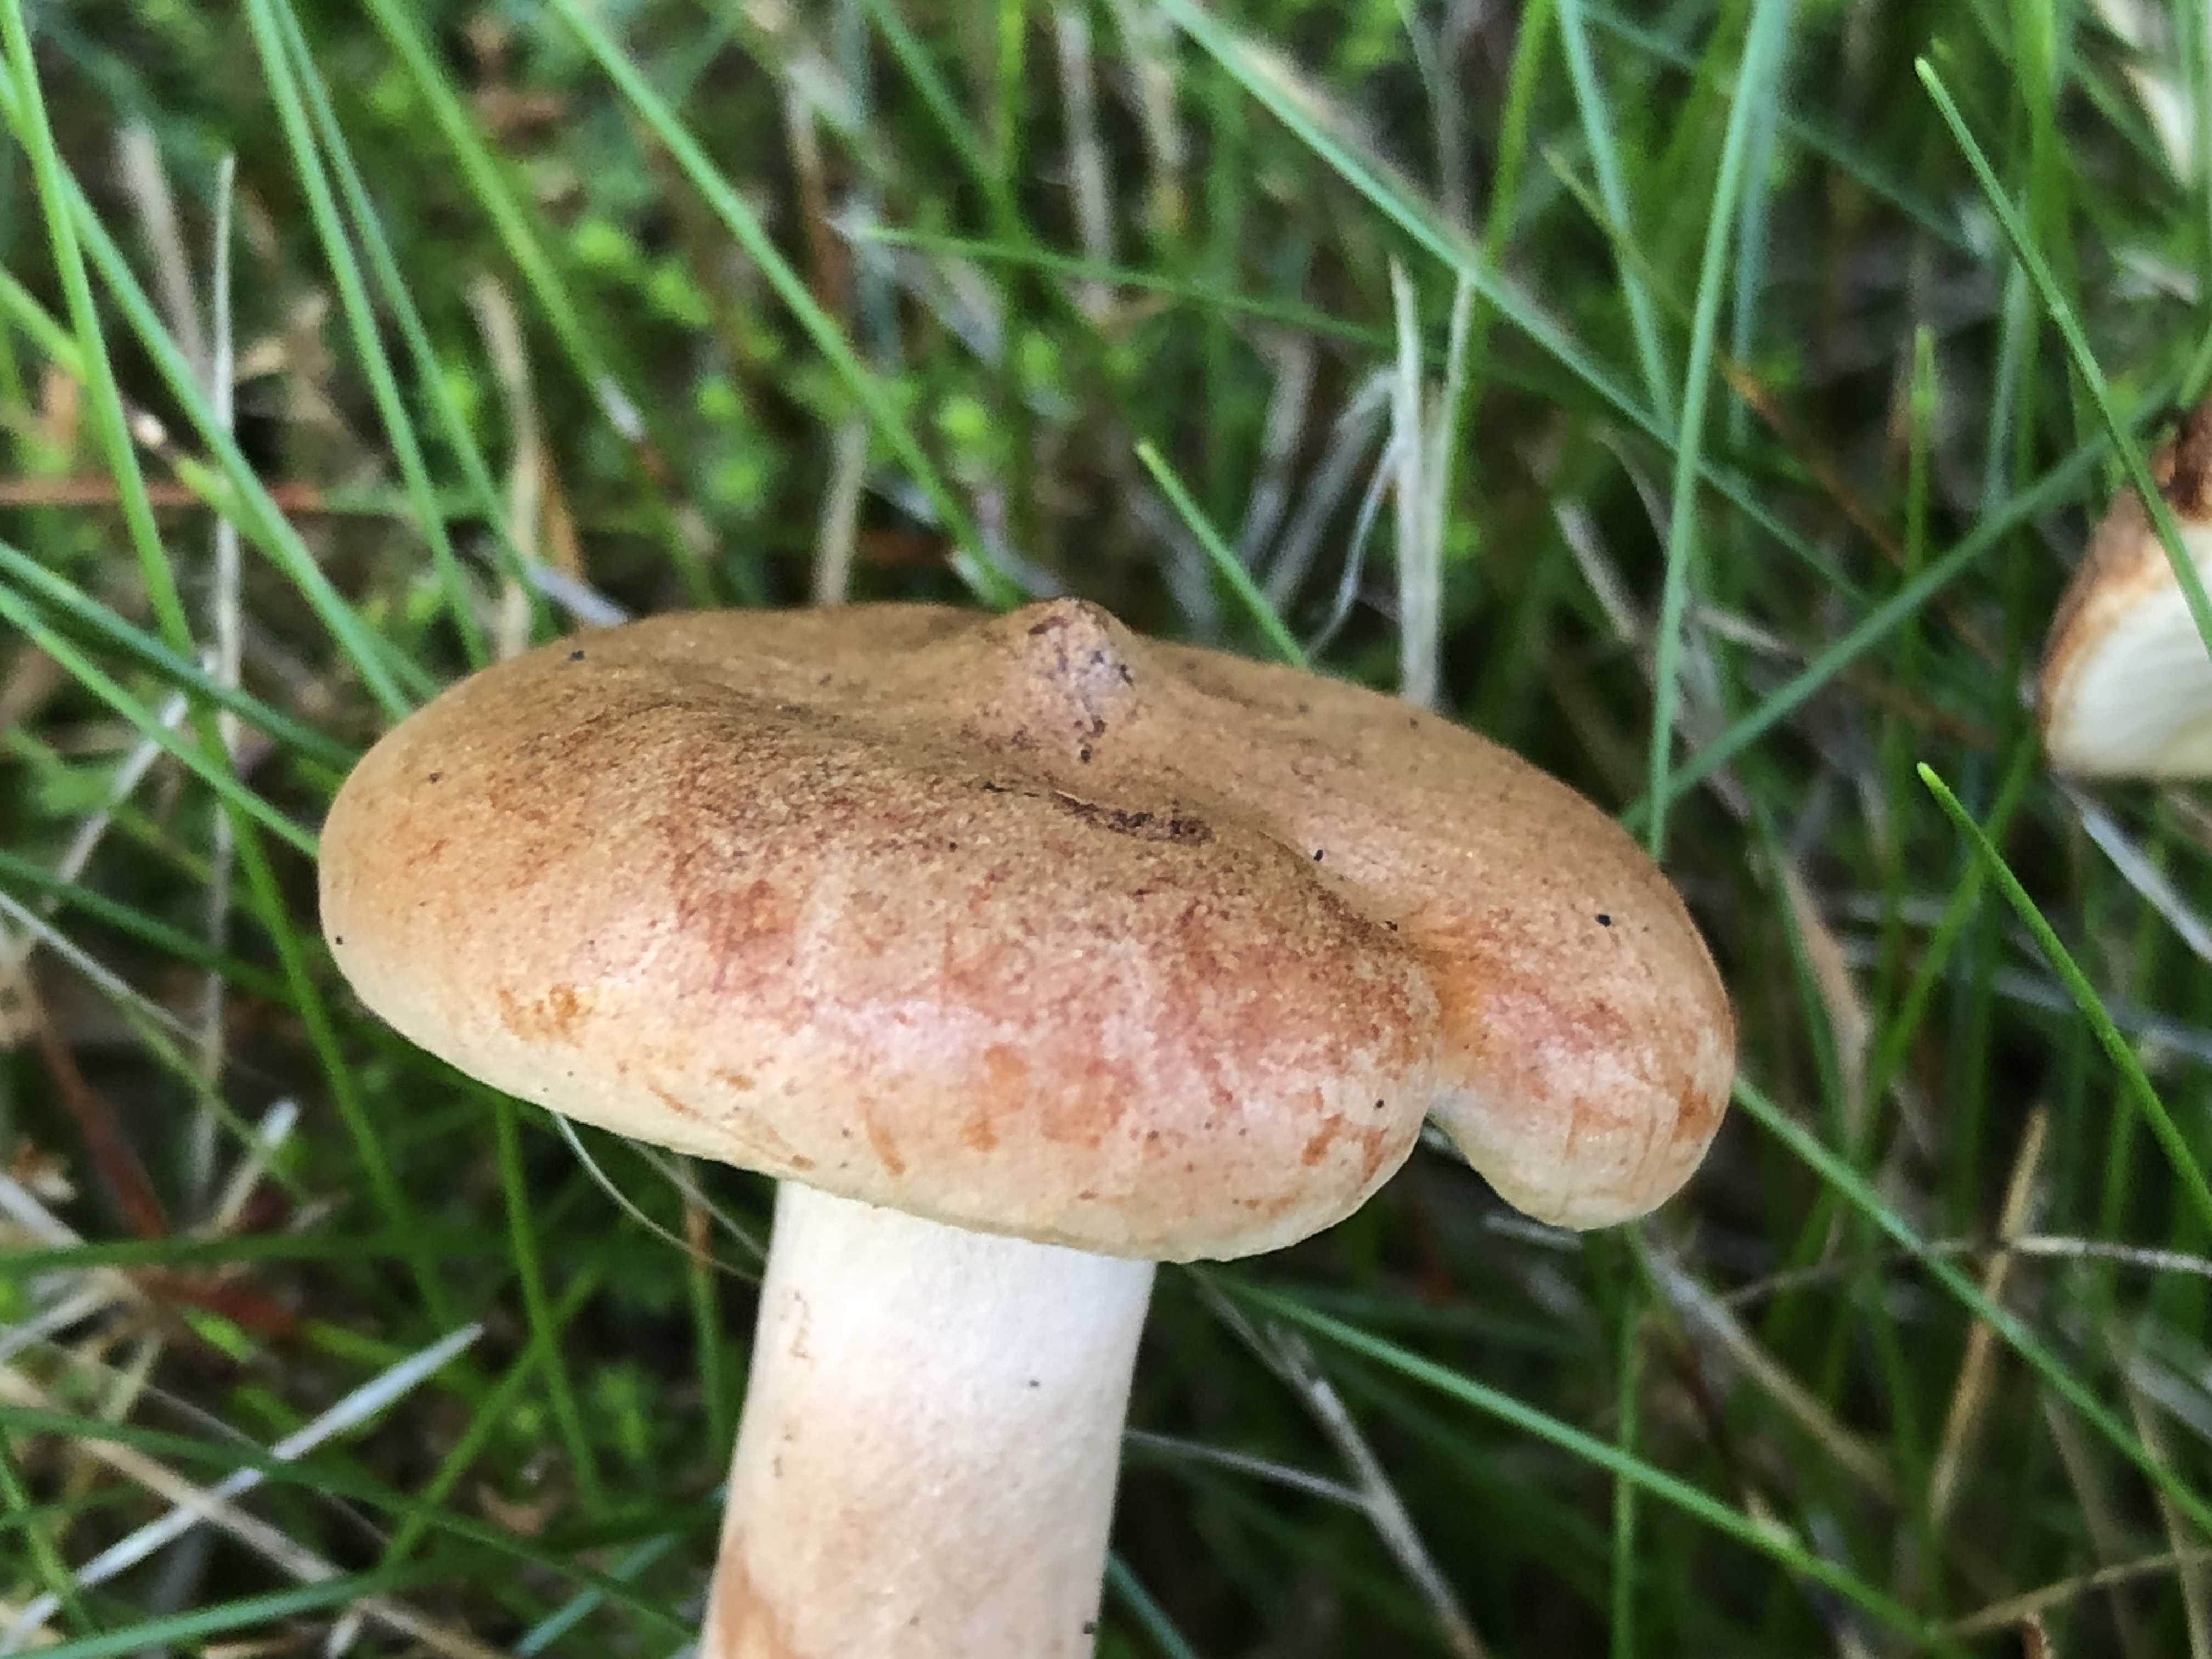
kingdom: Fungi
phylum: Basidiomycota
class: Agaricomycetes
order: Russulales
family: Russulaceae
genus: Lactarius
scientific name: Lactarius rufus
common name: rødbrun mælkehat
